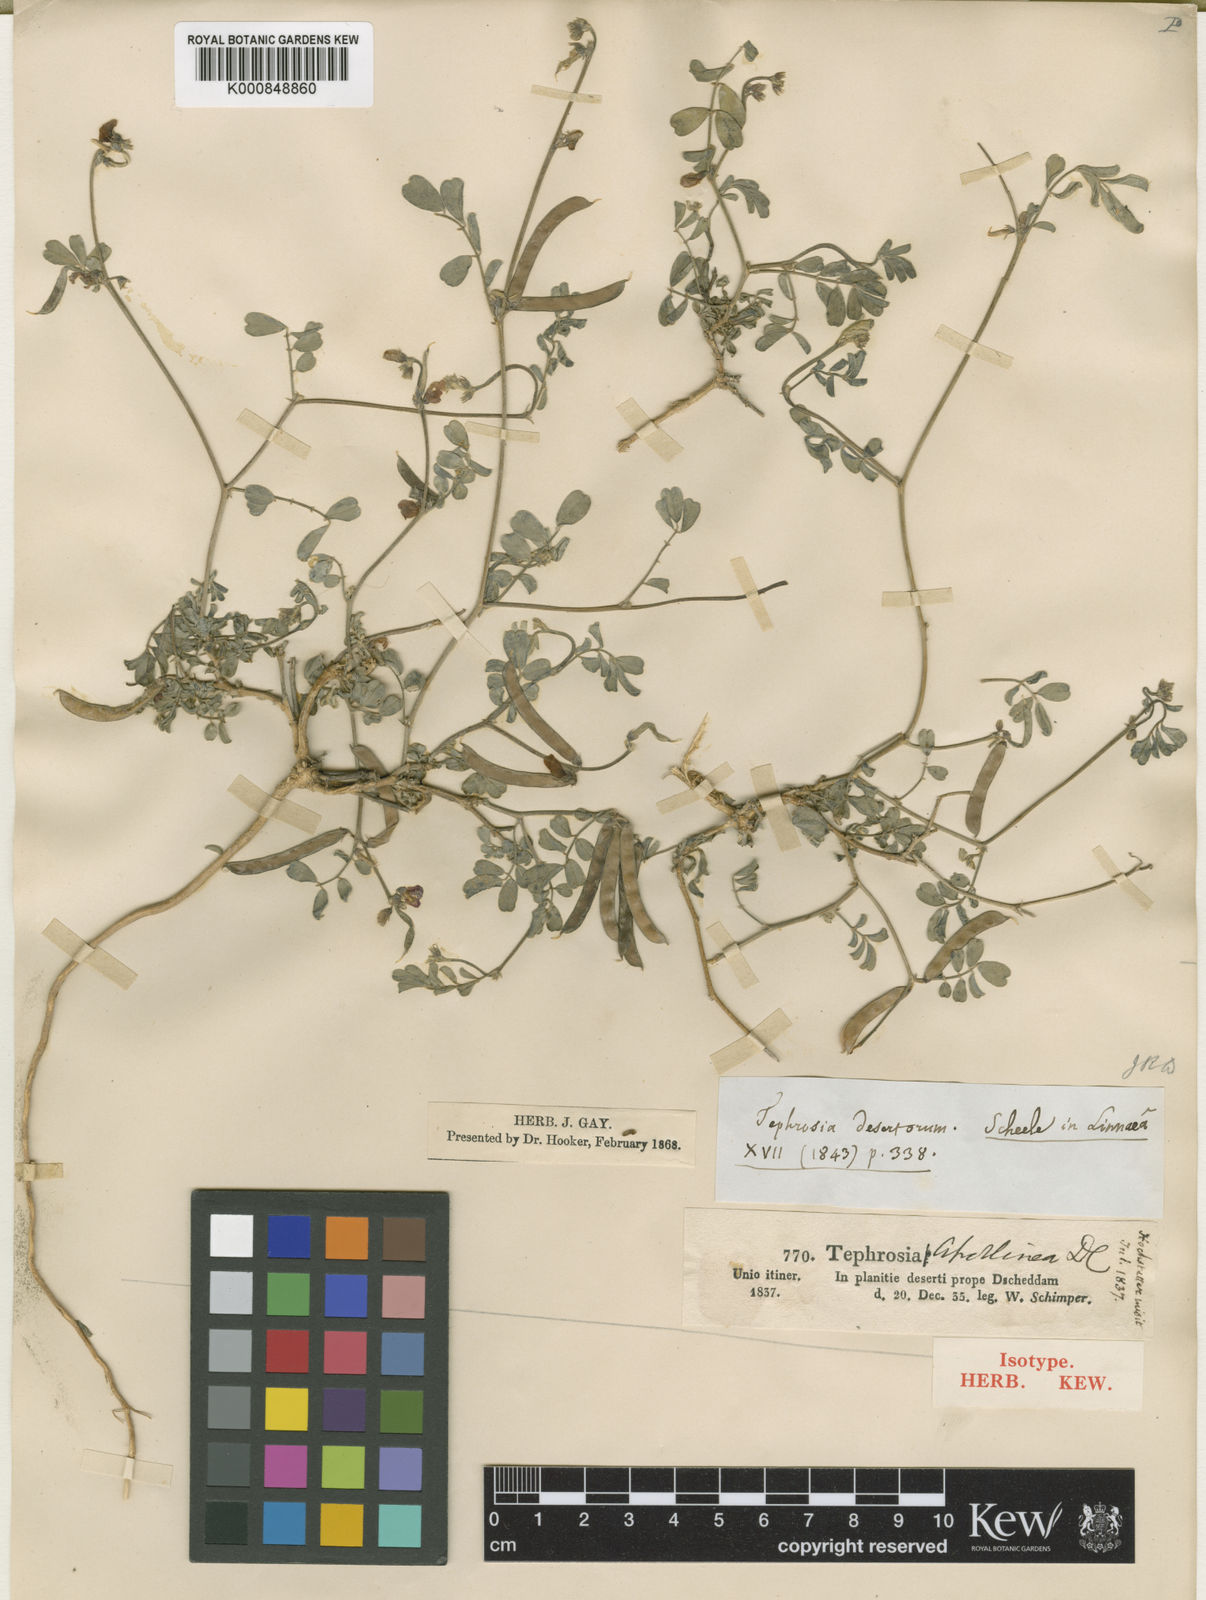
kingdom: Plantae
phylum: Tracheophyta
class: Magnoliopsida
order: Fabales
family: Fabaceae
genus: Tephrosia
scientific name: Tephrosia purpurea
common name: Fishpoison
